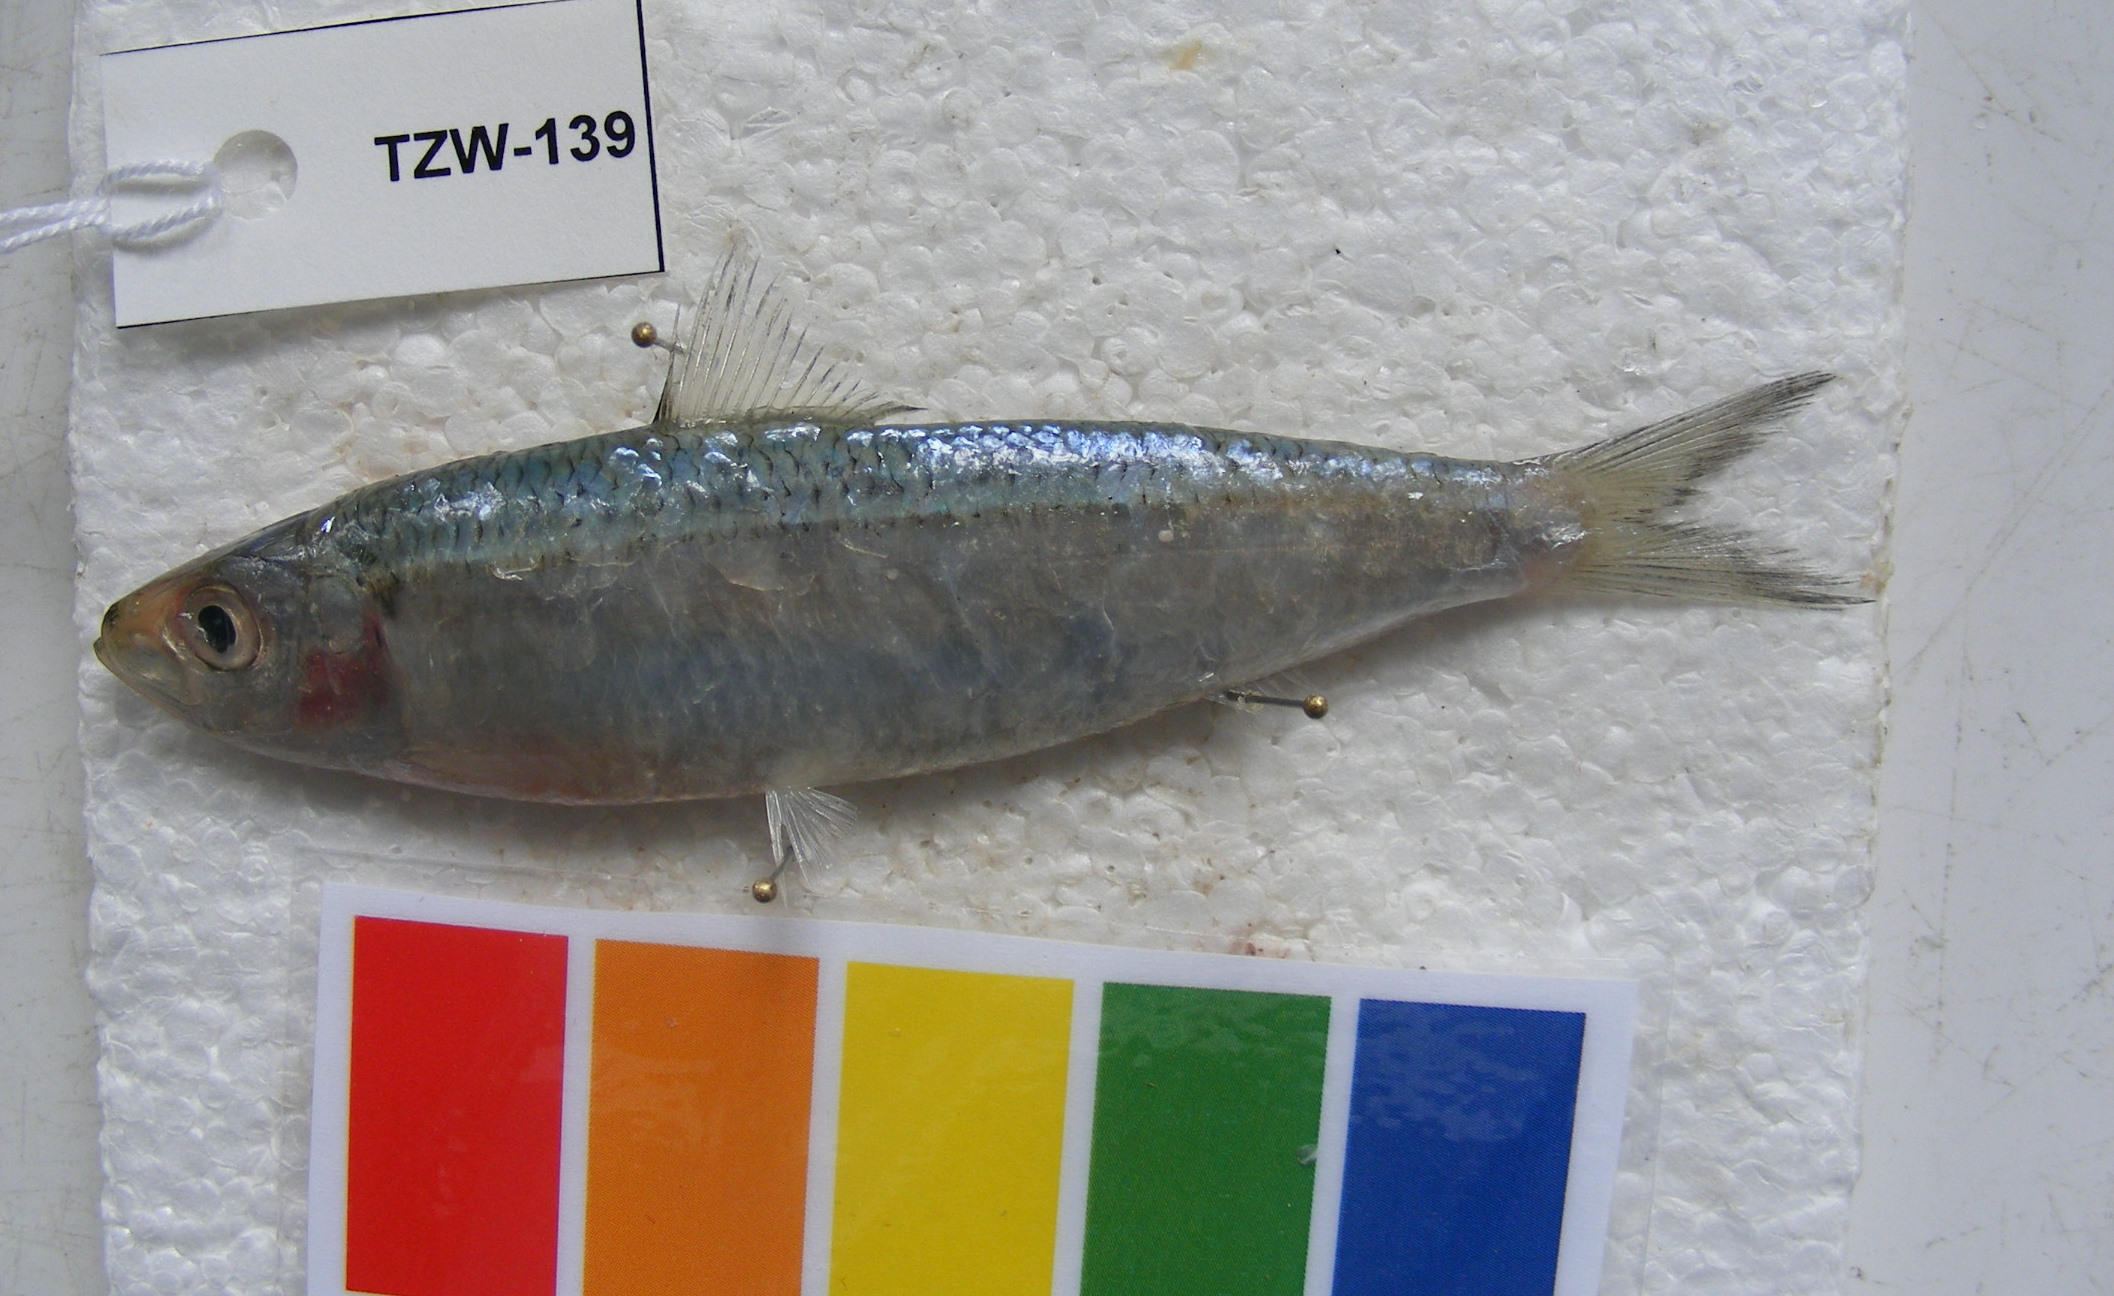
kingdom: Animalia
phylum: Chordata
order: Clupeiformes
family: Clupeidae
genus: Sardinella
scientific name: Sardinella gibbosa
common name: Goldstripe sardinella
